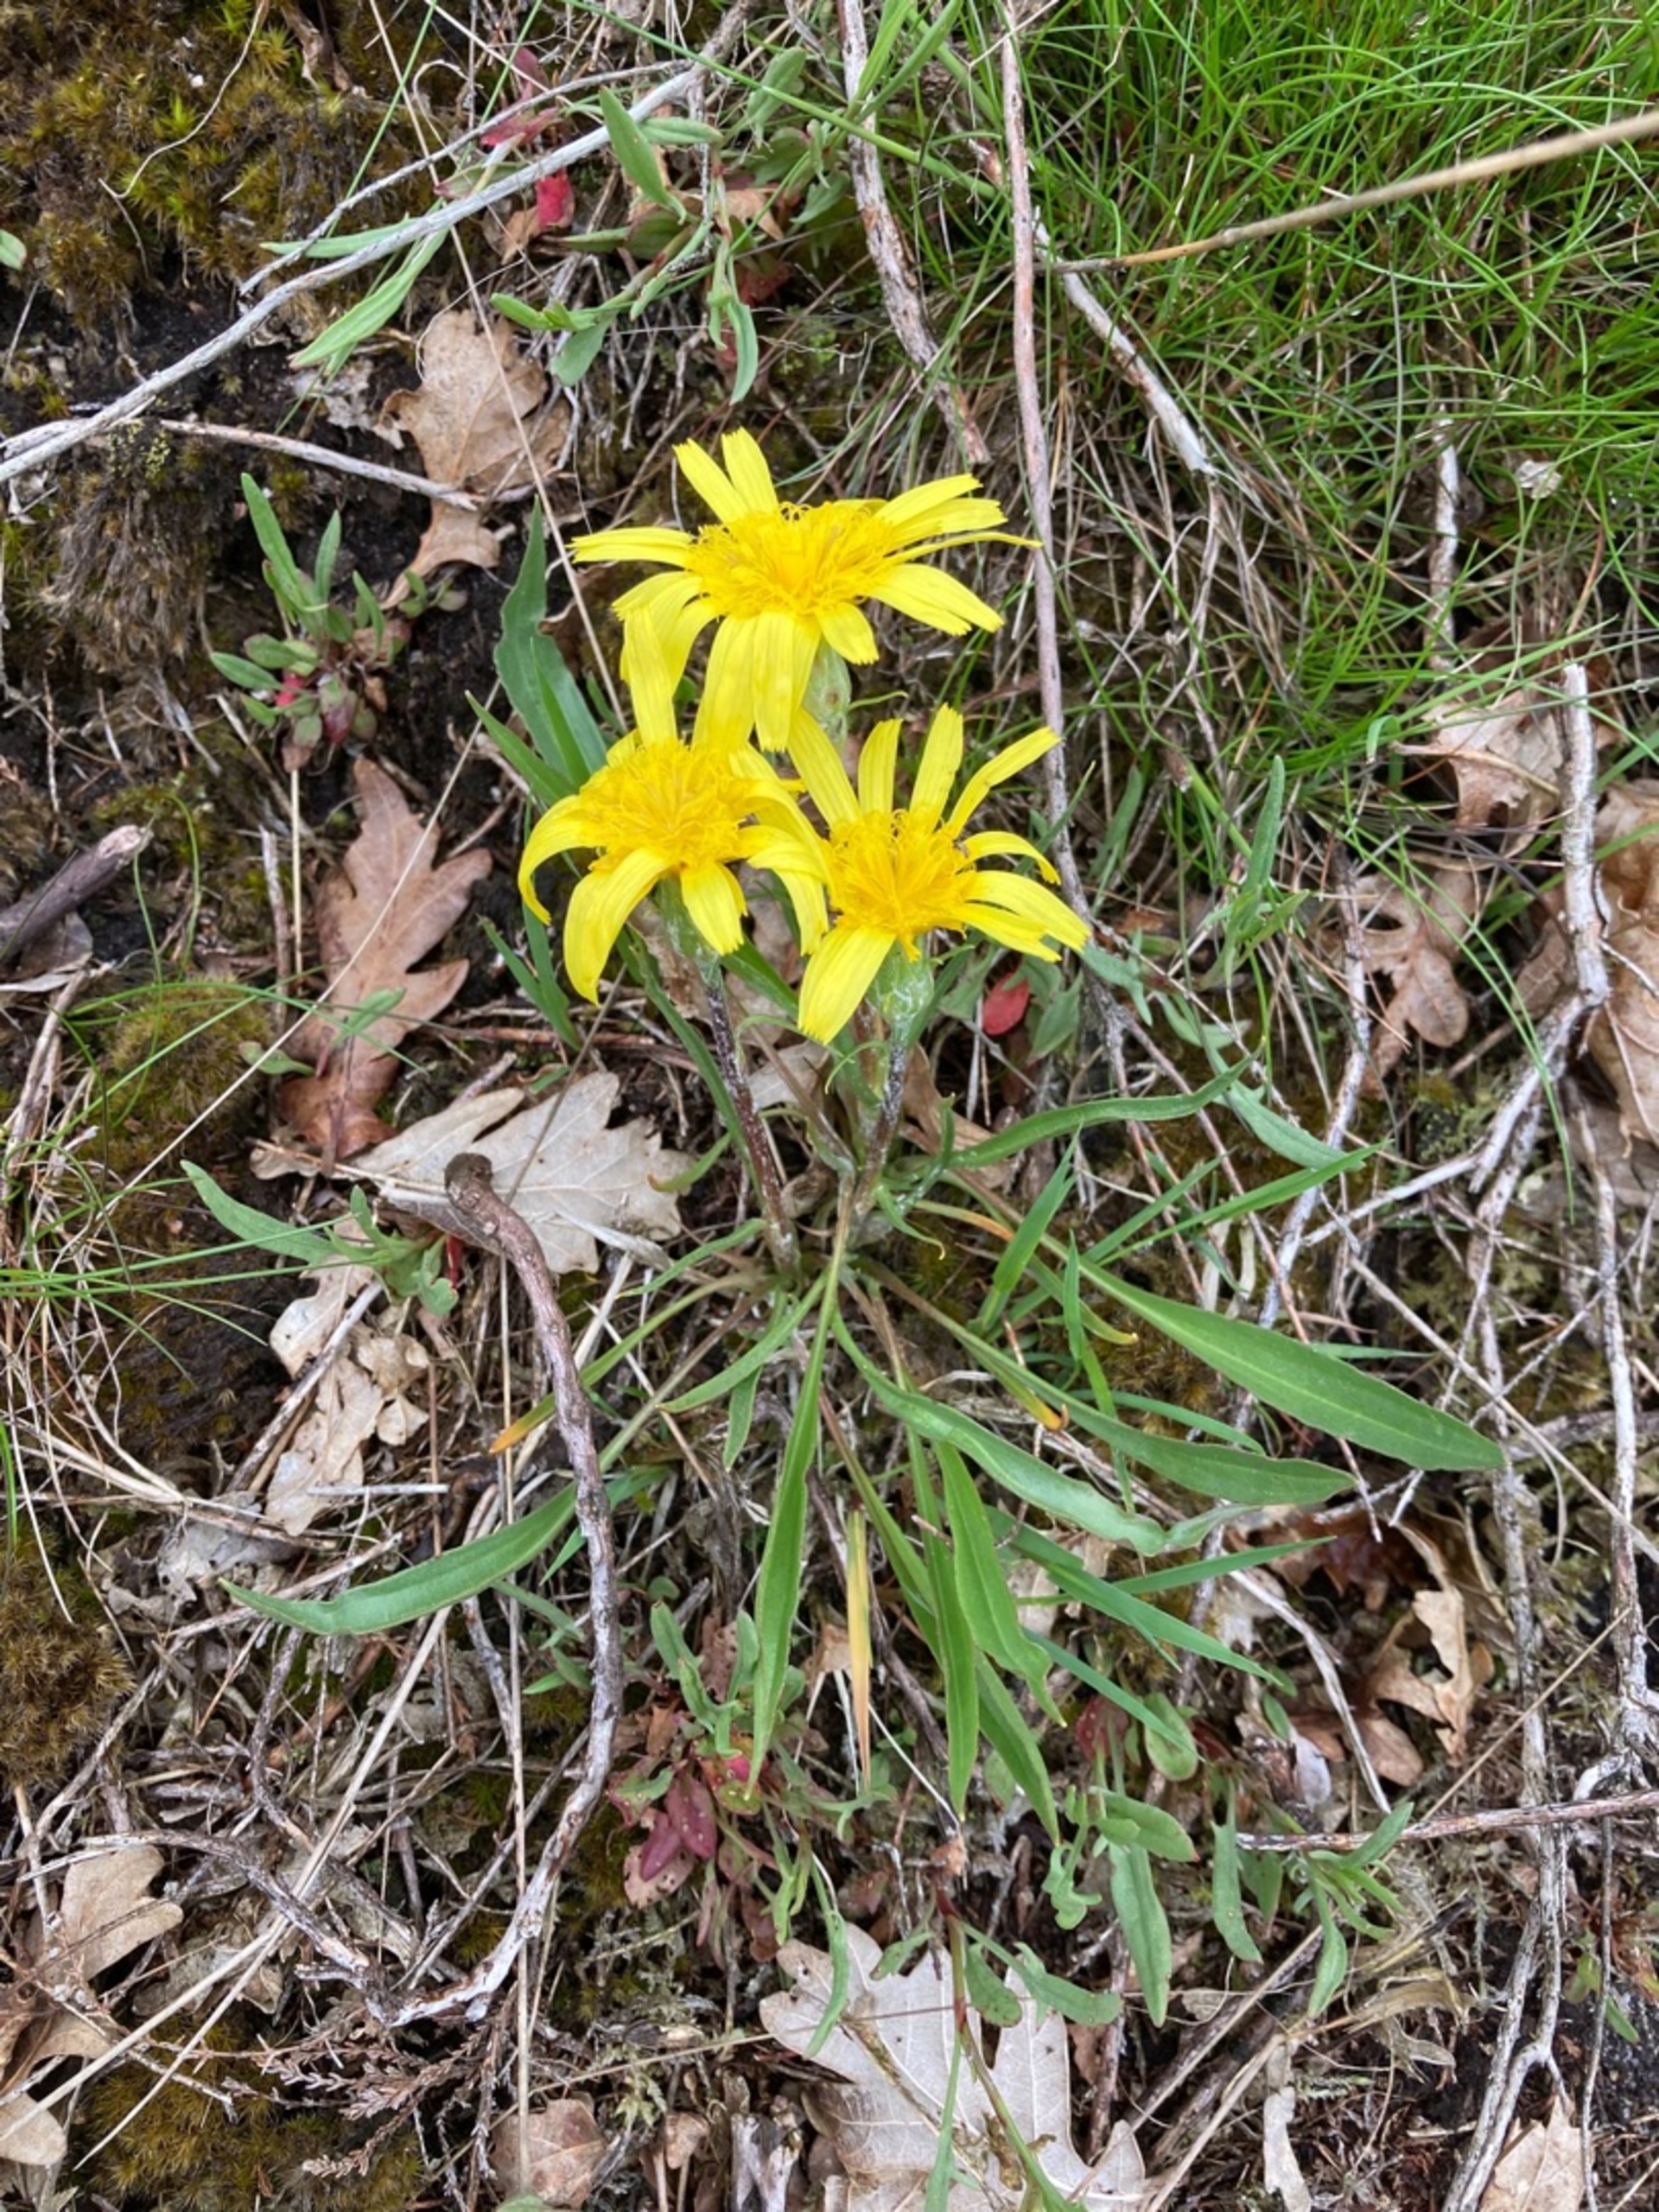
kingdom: Plantae
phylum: Tracheophyta
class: Magnoliopsida
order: Asterales
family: Asteraceae
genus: Scorzonera
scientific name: Scorzonera humilis
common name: Lav skorsoner
